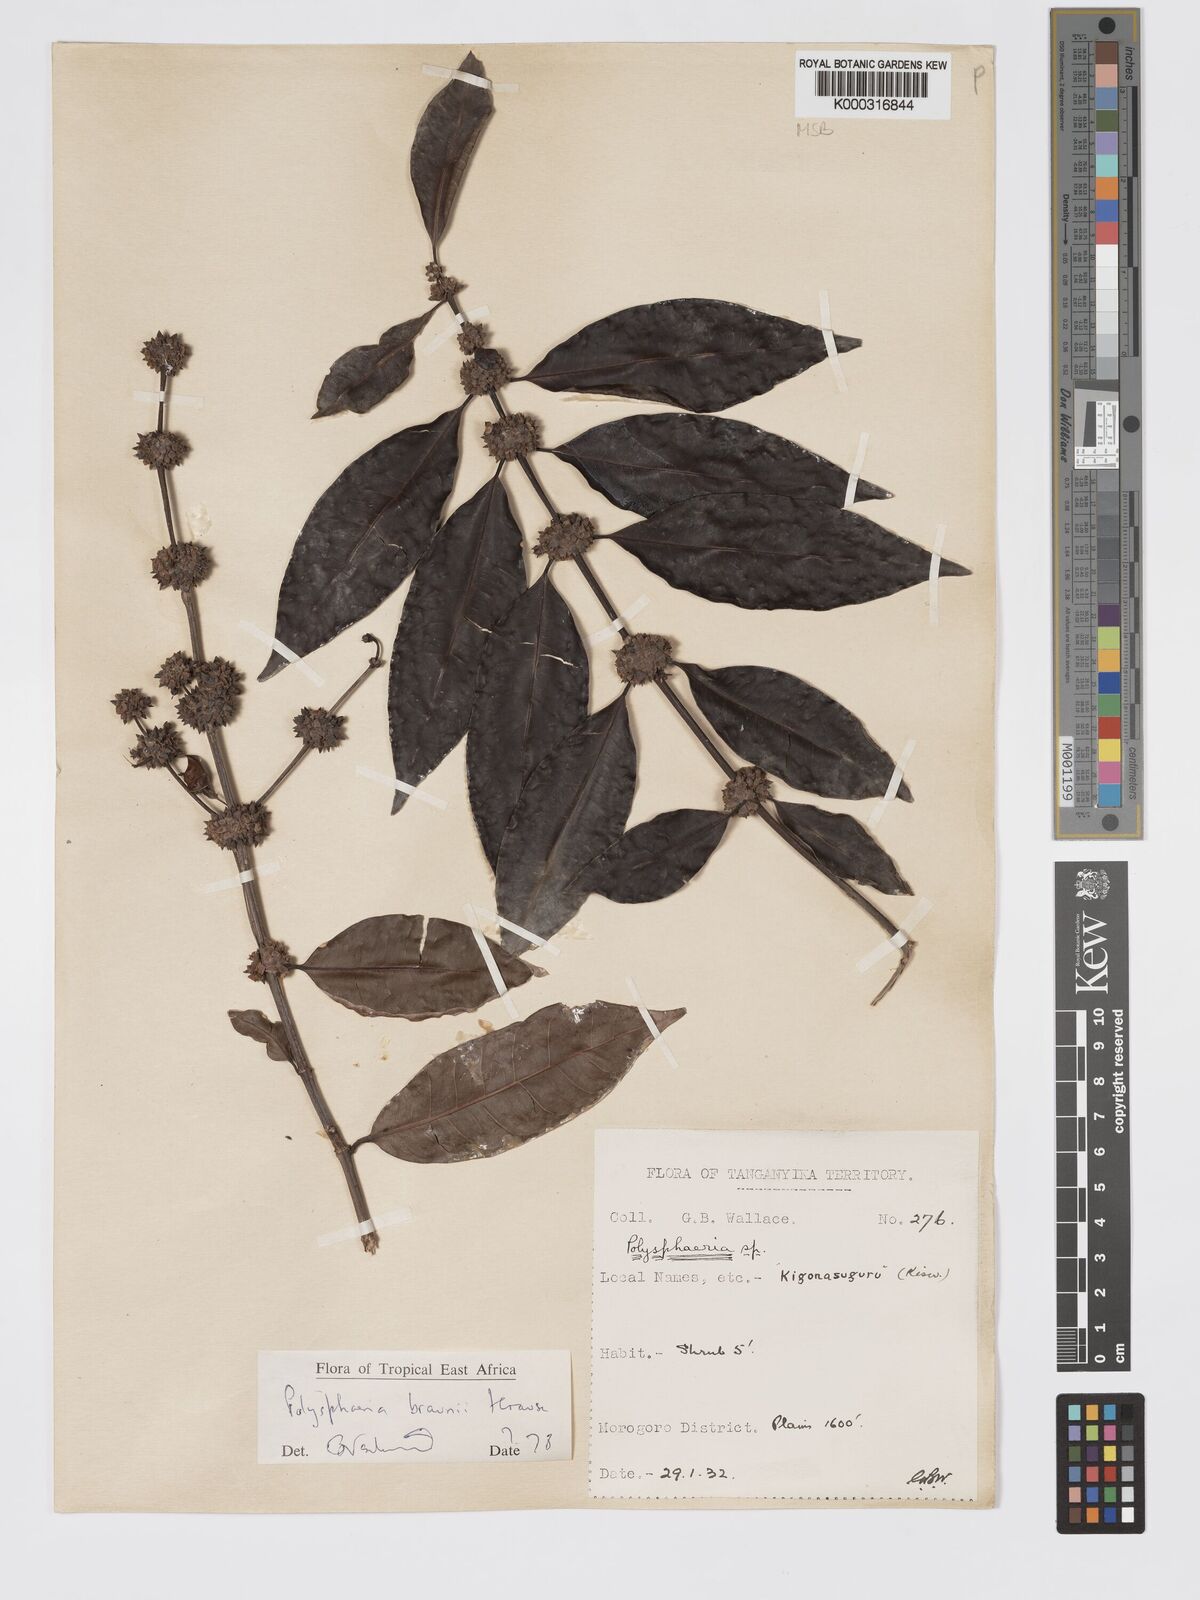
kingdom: Plantae
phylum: Tracheophyta
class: Magnoliopsida
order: Gentianales
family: Rubiaceae
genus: Polysphaeria
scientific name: Polysphaeria braunii
